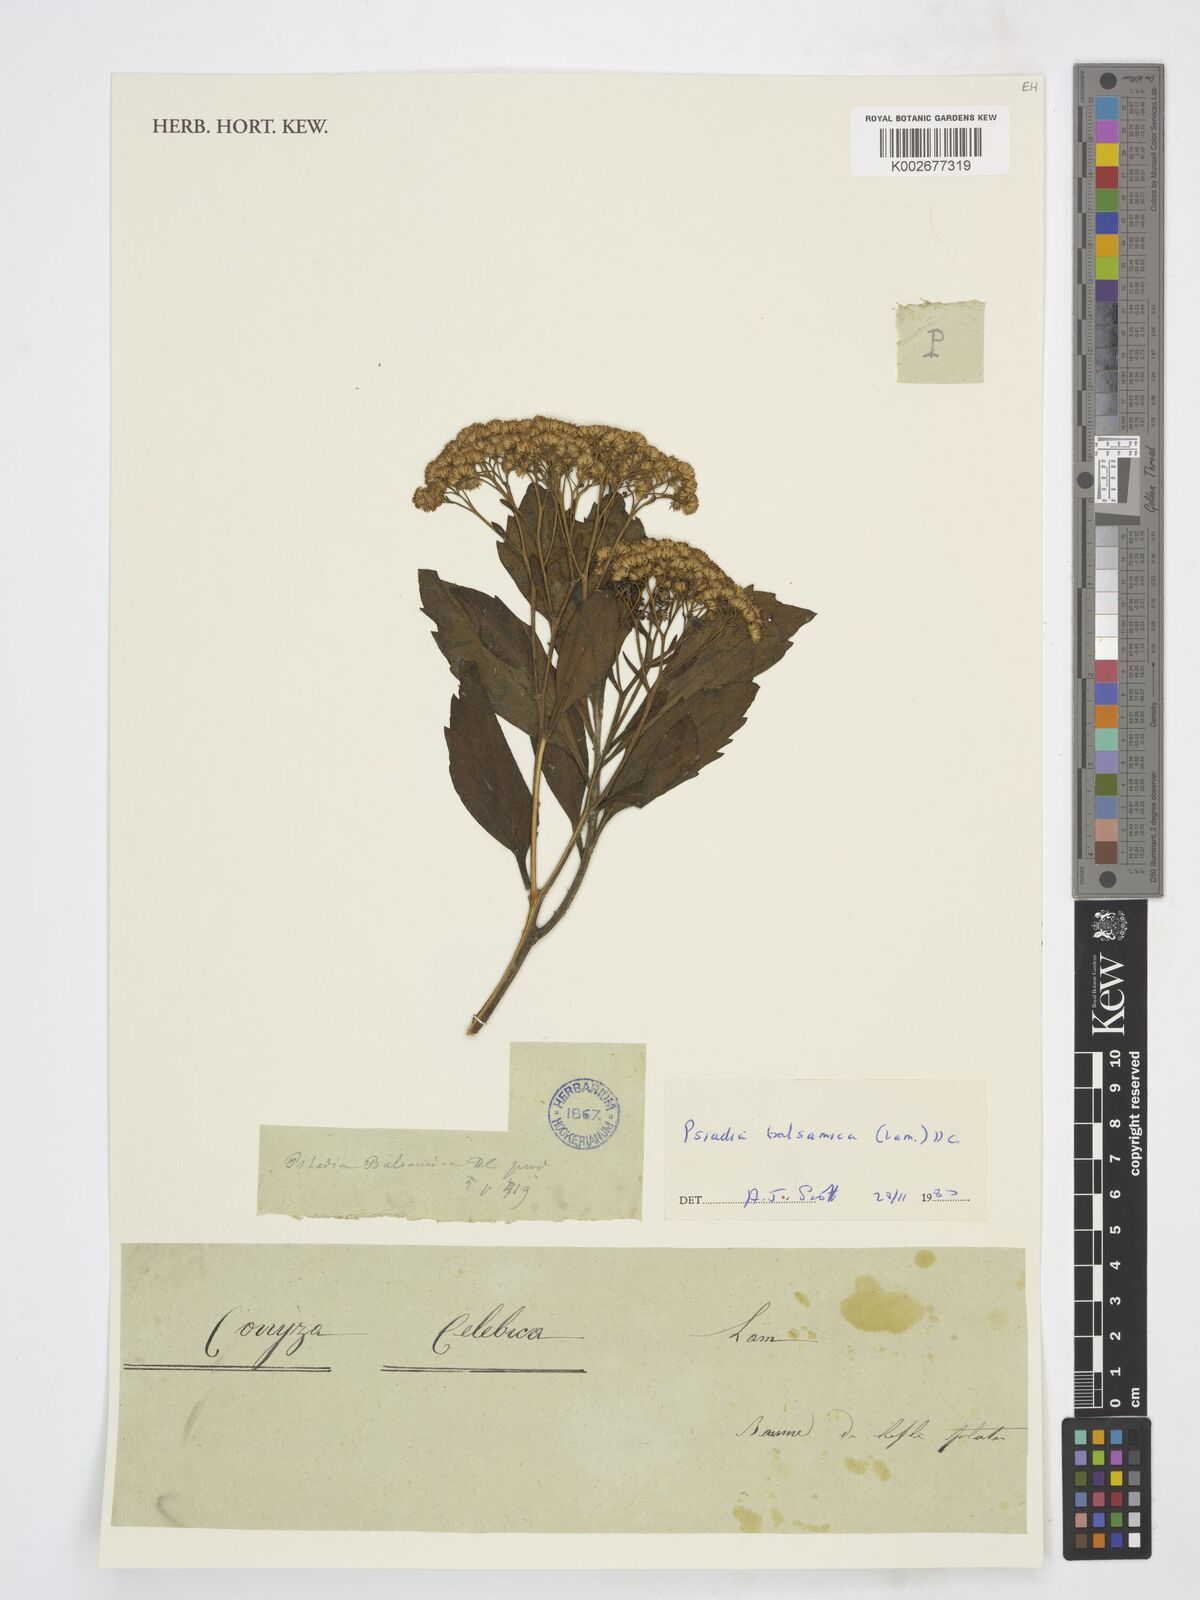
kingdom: Plantae
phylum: Tracheophyta
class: Magnoliopsida
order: Asterales
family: Asteraceae
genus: Psiadia
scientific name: Psiadia arguta
